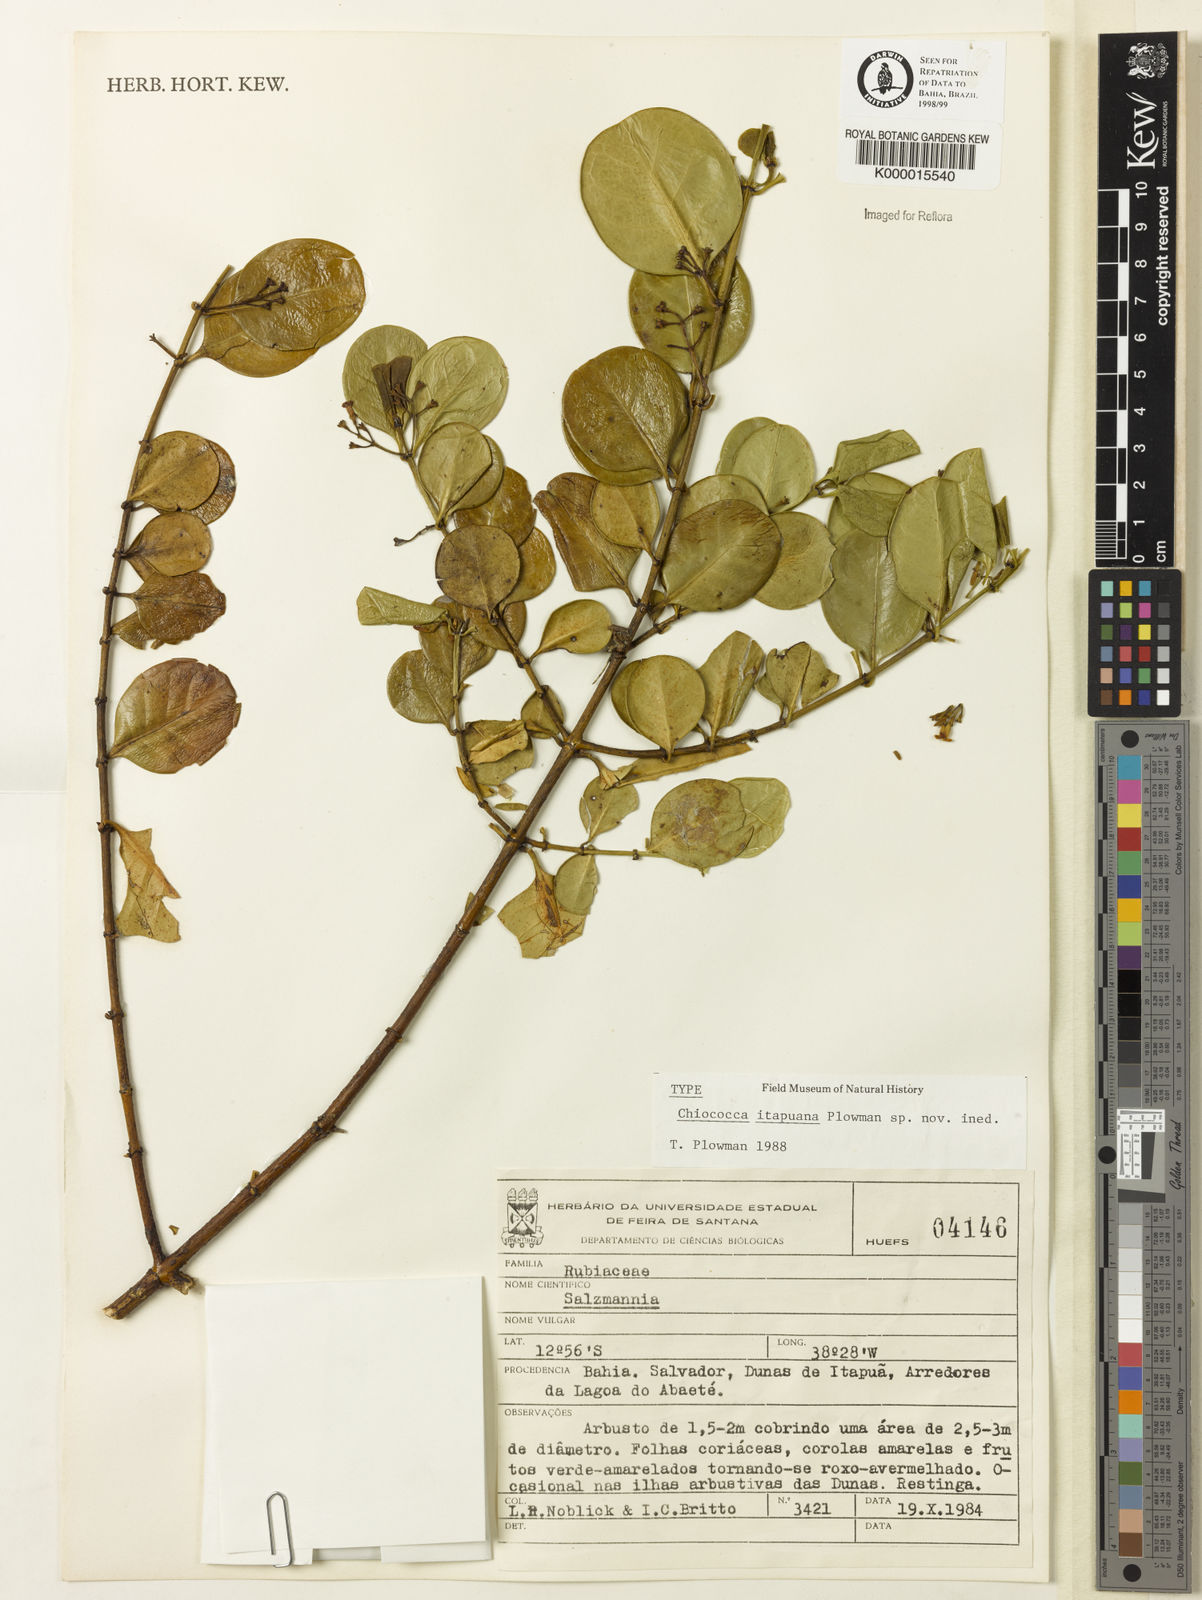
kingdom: Plantae
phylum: Tracheophyta
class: Magnoliopsida
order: Gentianales
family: Rubiaceae
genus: Chiococca
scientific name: Chiococca
